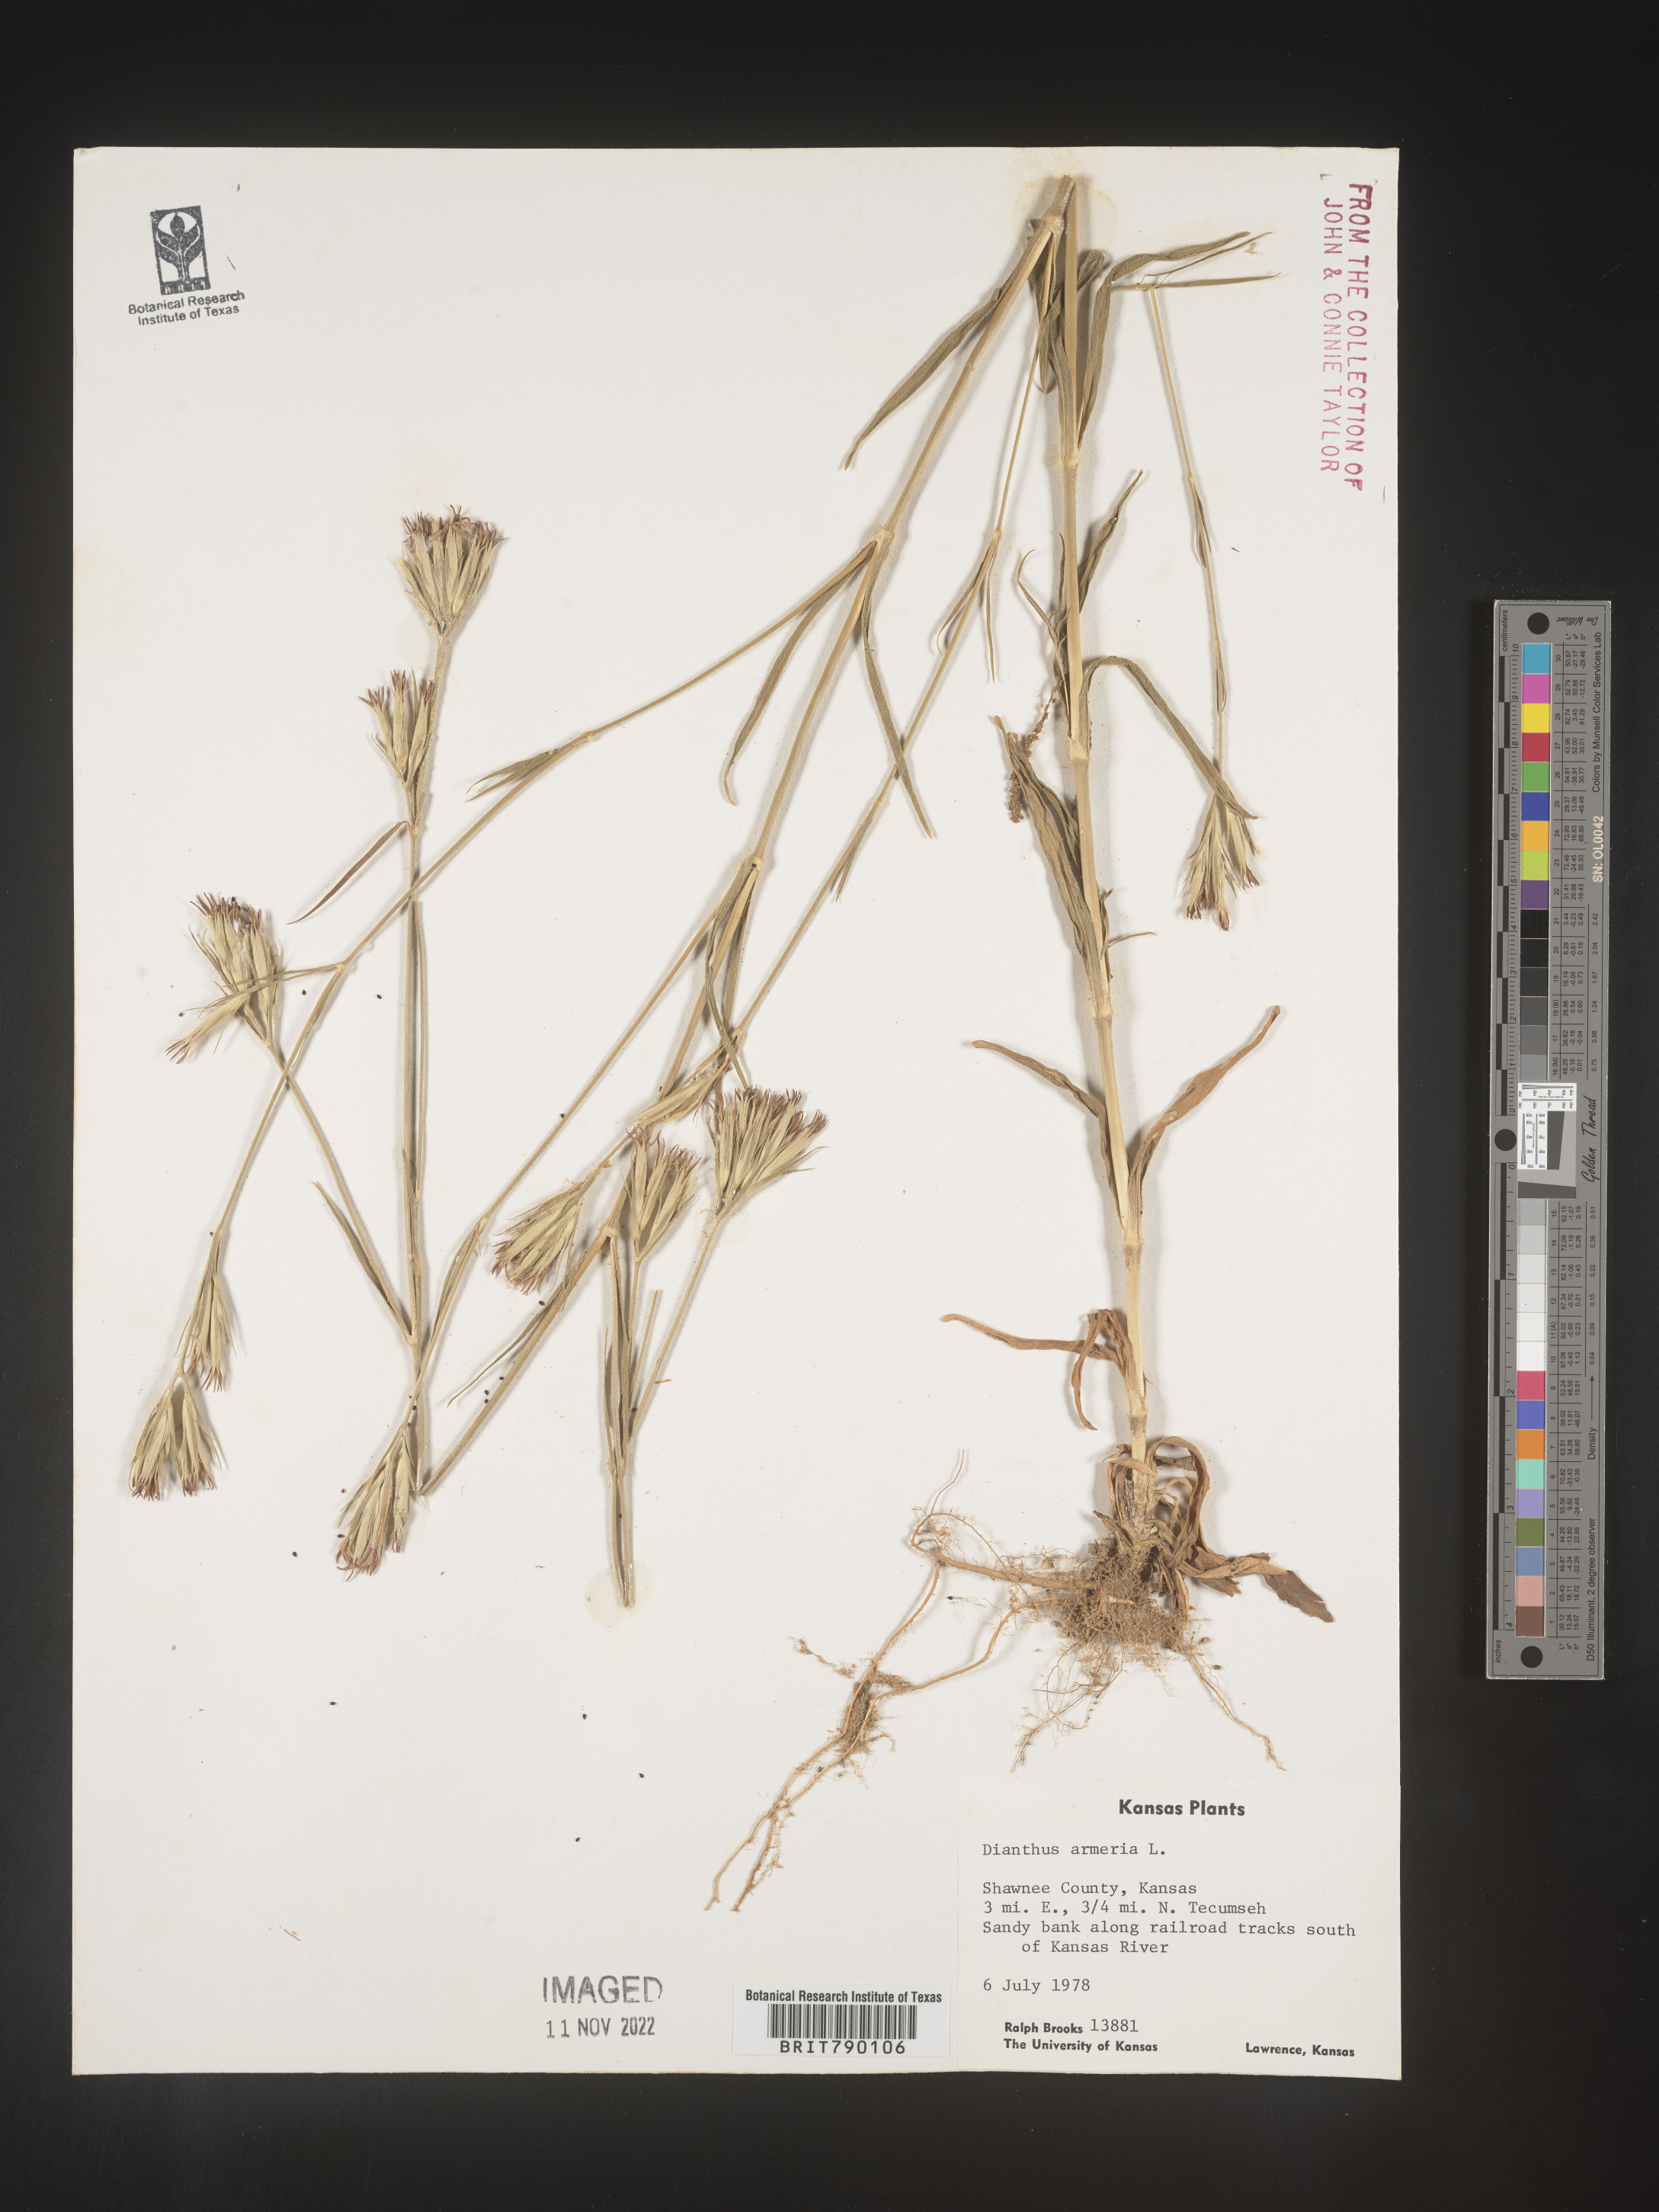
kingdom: Plantae
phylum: Tracheophyta
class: Magnoliopsida
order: Caryophyllales
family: Caryophyllaceae
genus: Dianthus
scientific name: Dianthus armeria
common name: Deptford pink
